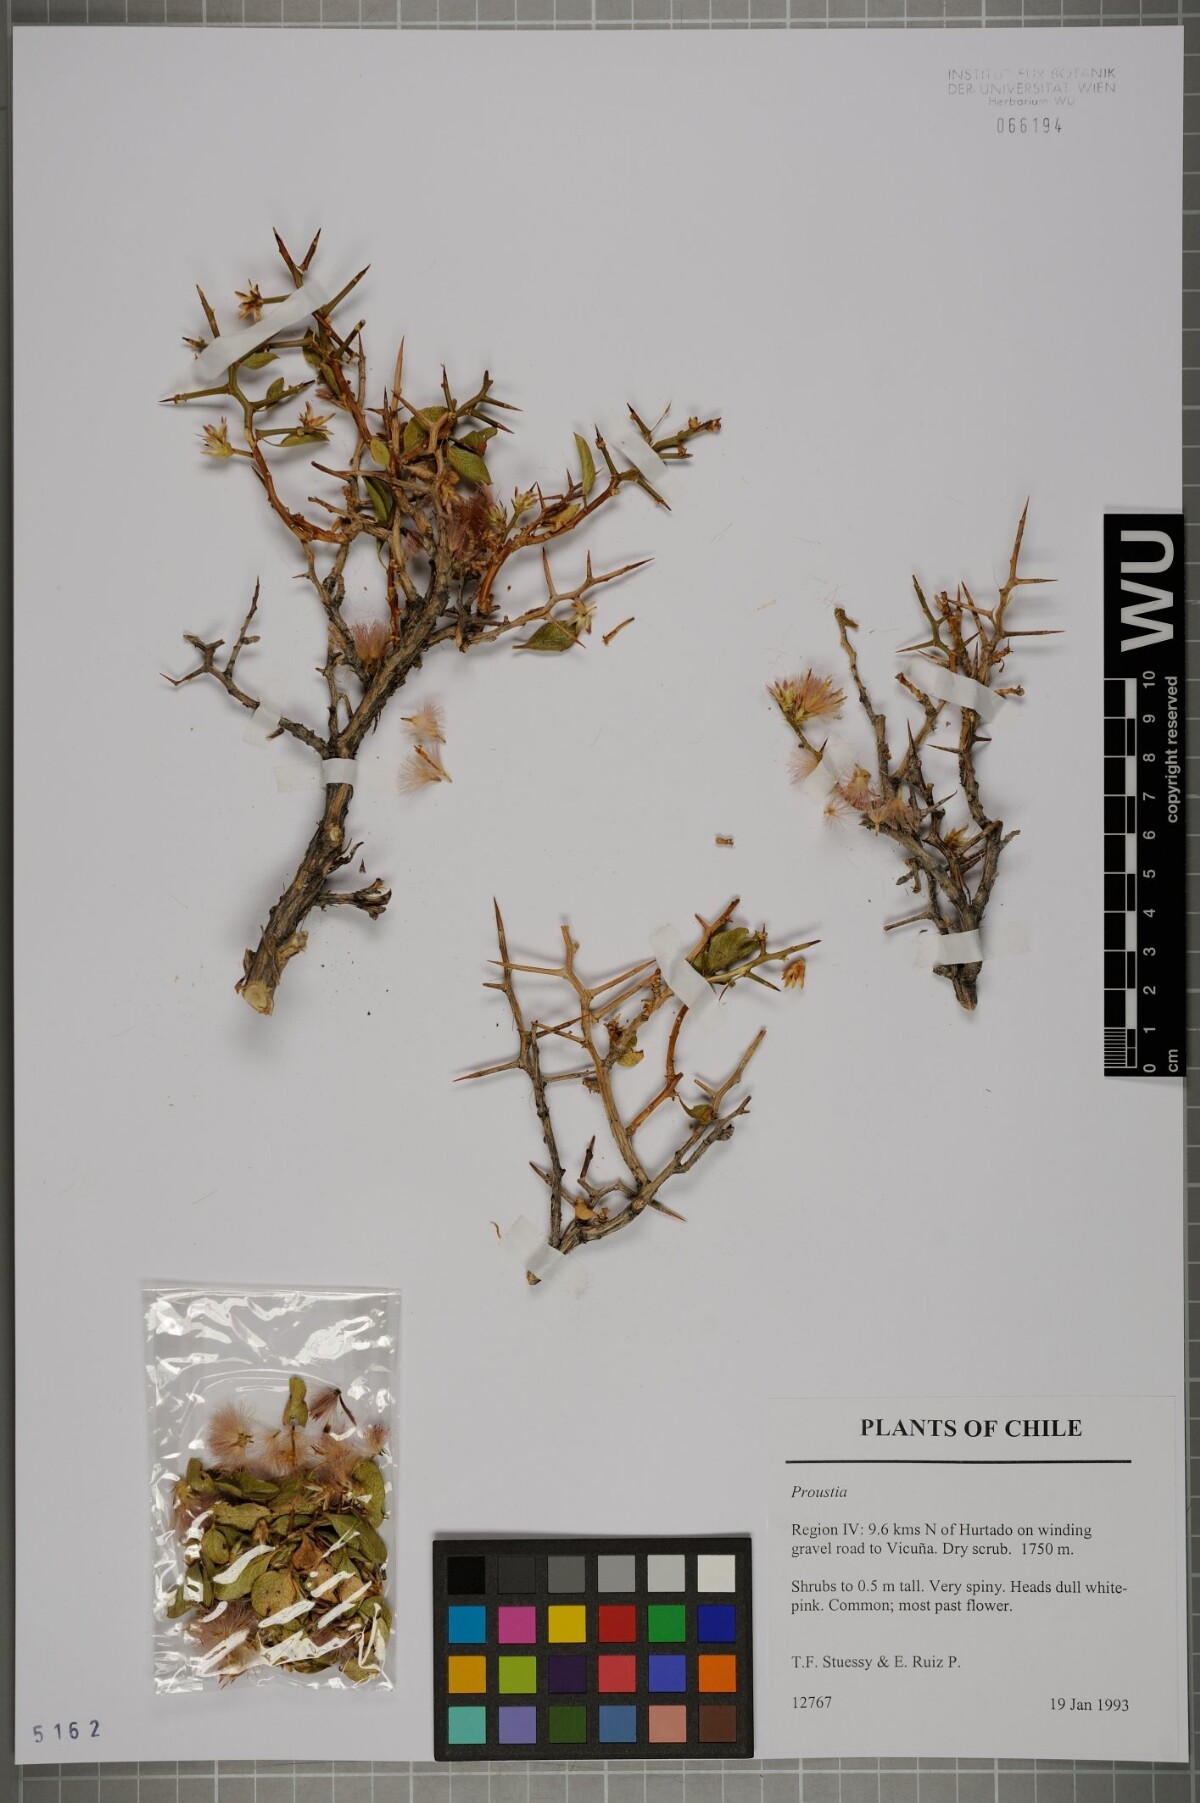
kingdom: Plantae
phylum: Tracheophyta
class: Magnoliopsida
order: Asterales
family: Asteraceae
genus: Proustia
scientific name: Proustia cuneifolia
